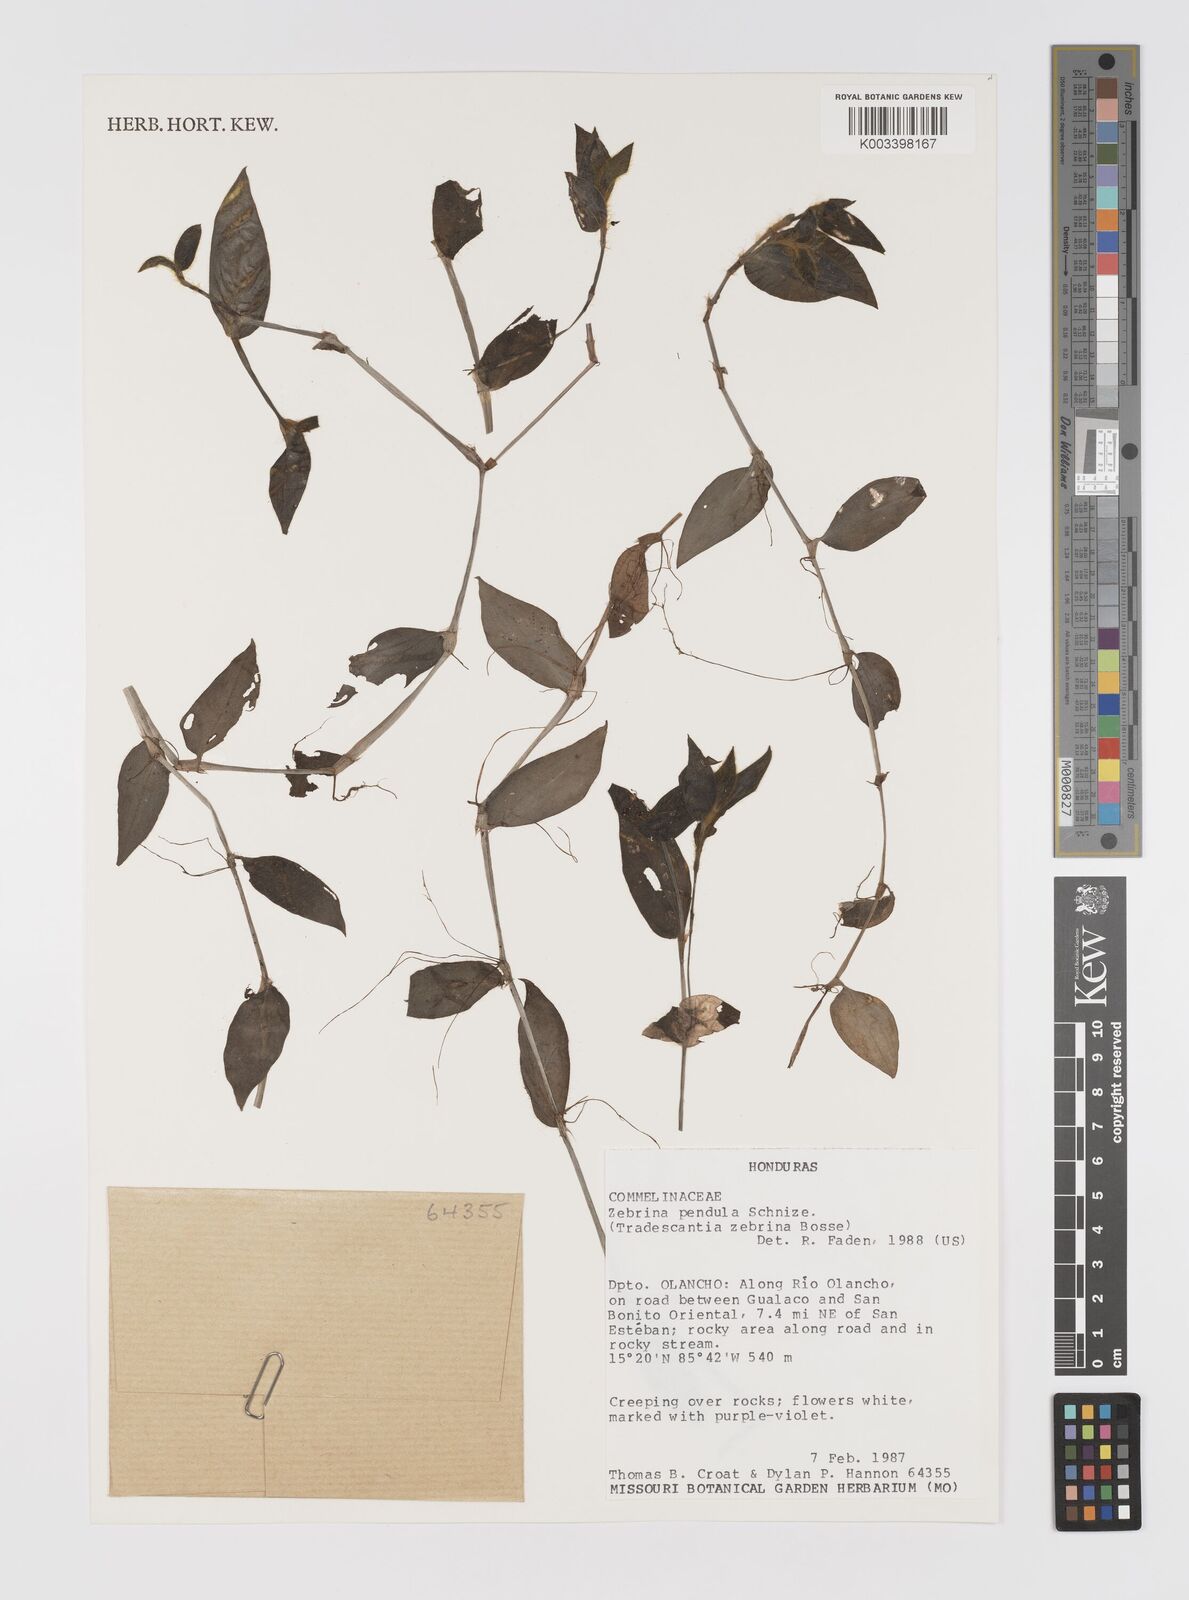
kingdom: Plantae
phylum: Tracheophyta
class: Liliopsida
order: Commelinales
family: Commelinaceae
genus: Tradescantia
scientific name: Tradescantia zebrina
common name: Inchplant
